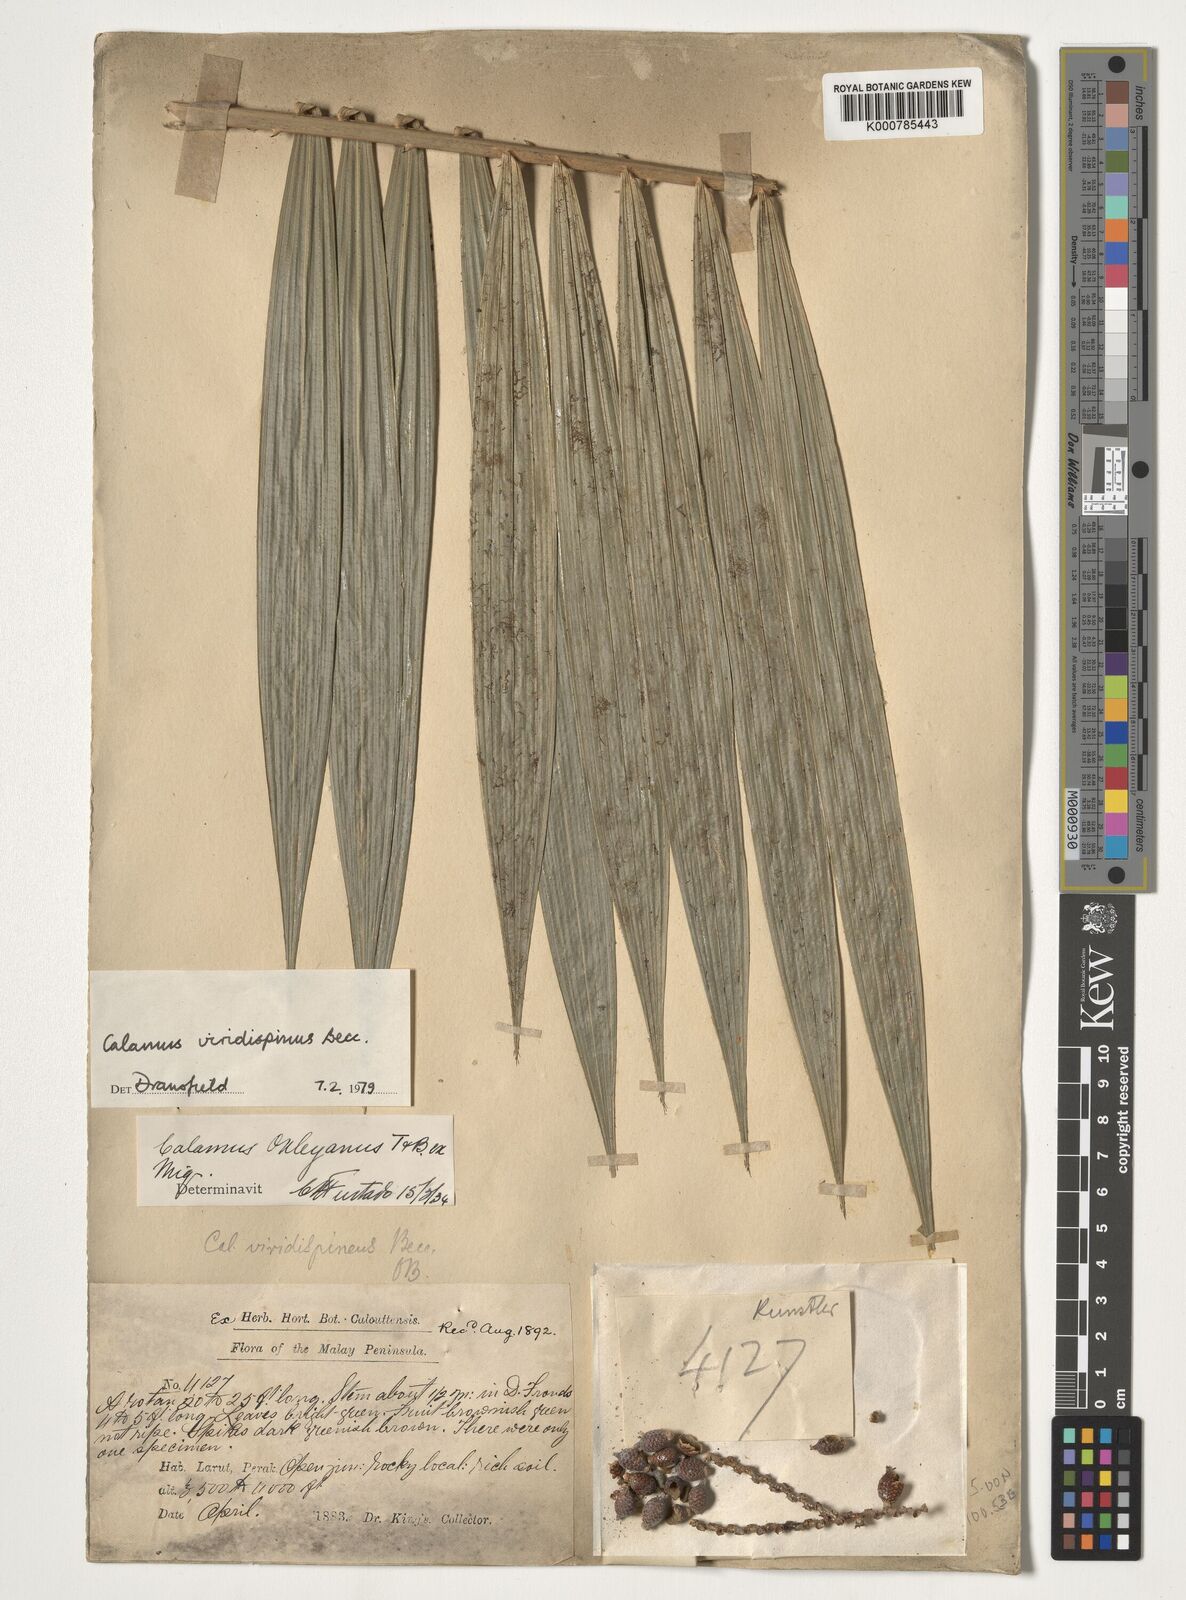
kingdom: Plantae
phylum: Tracheophyta
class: Liliopsida
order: Arecales
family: Arecaceae
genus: Calamus
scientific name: Calamus helferianus
